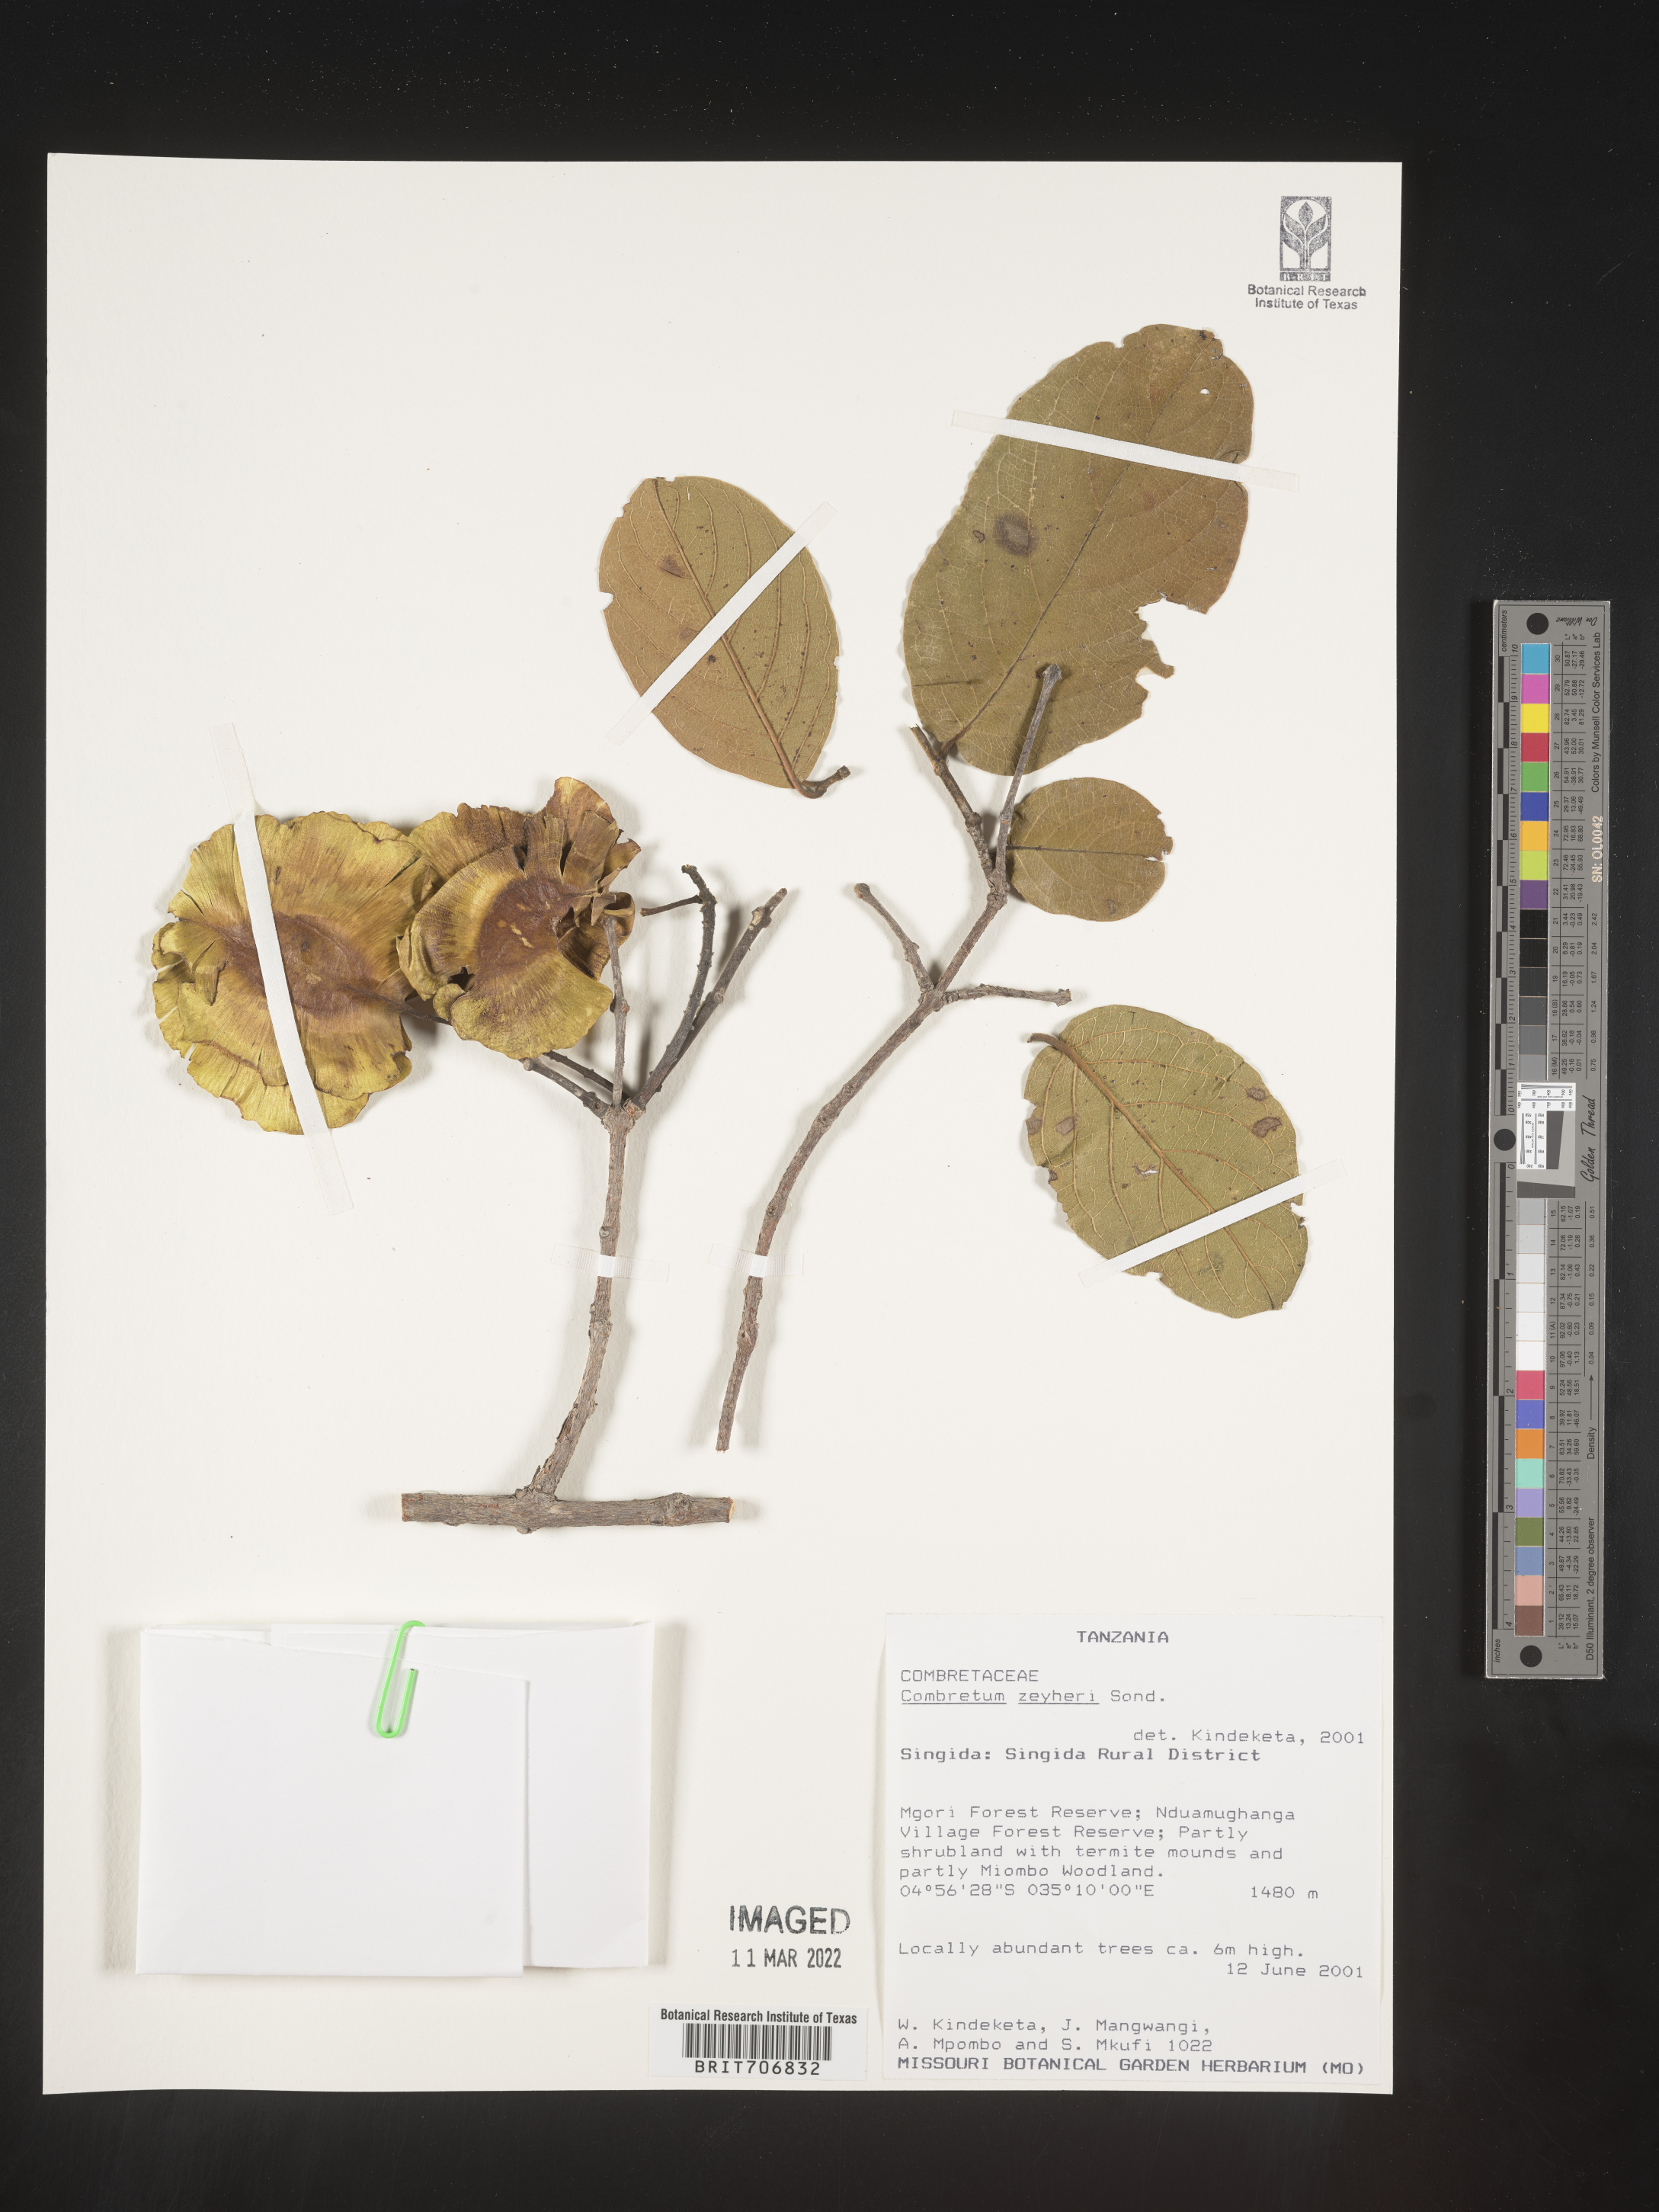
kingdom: Plantae
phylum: Tracheophyta
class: Magnoliopsida
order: Myrtales
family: Combretaceae
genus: Combretum
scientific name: Combretum
